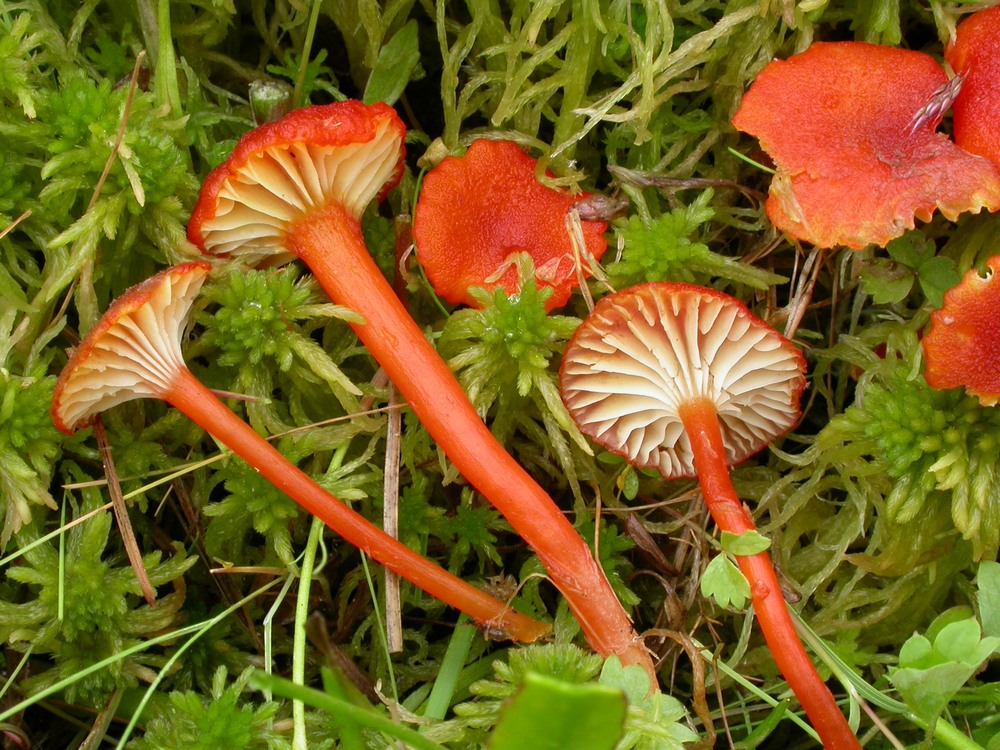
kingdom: Fungi
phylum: Basidiomycota
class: Agaricomycetes
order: Agaricales
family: Hygrophoraceae
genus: Hygrocybe
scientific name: Hygrocybe coccineocrenata
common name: tørvemos-vokshat
